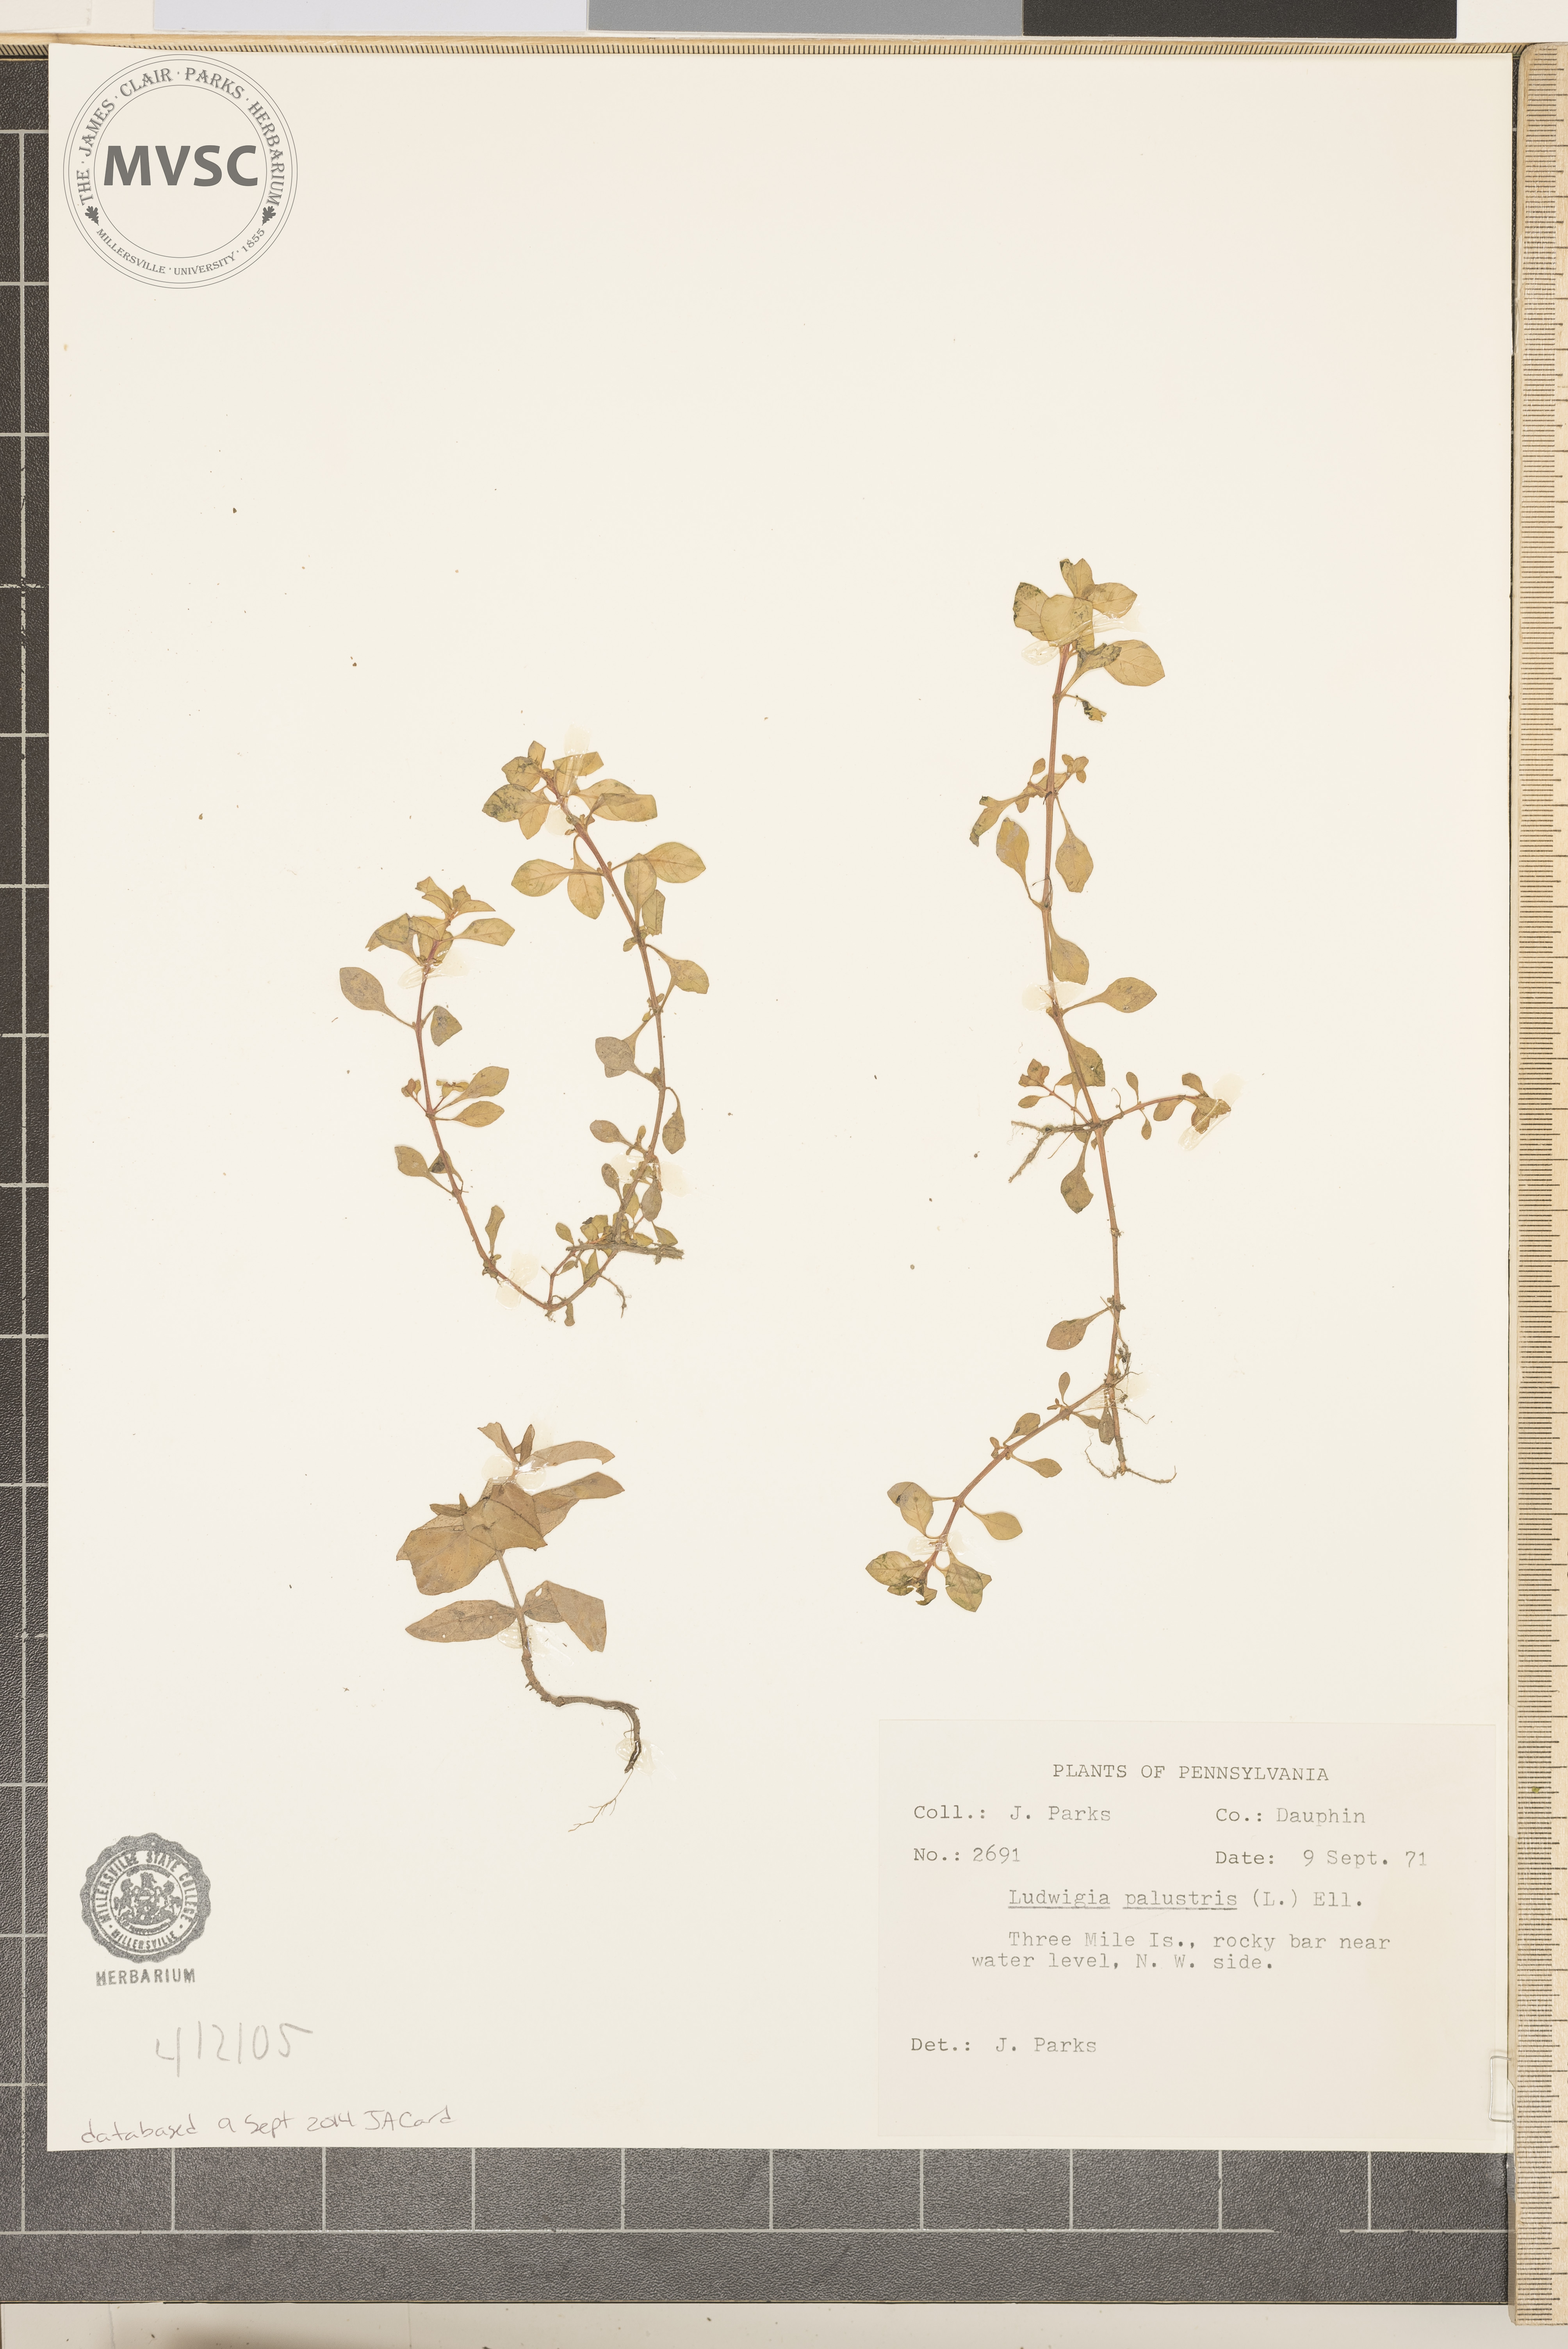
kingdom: Plantae
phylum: Tracheophyta
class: Magnoliopsida
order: Myrtales
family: Onagraceae
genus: Ludwigia
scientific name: Ludwigia palustris
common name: Hampshire-purslane
